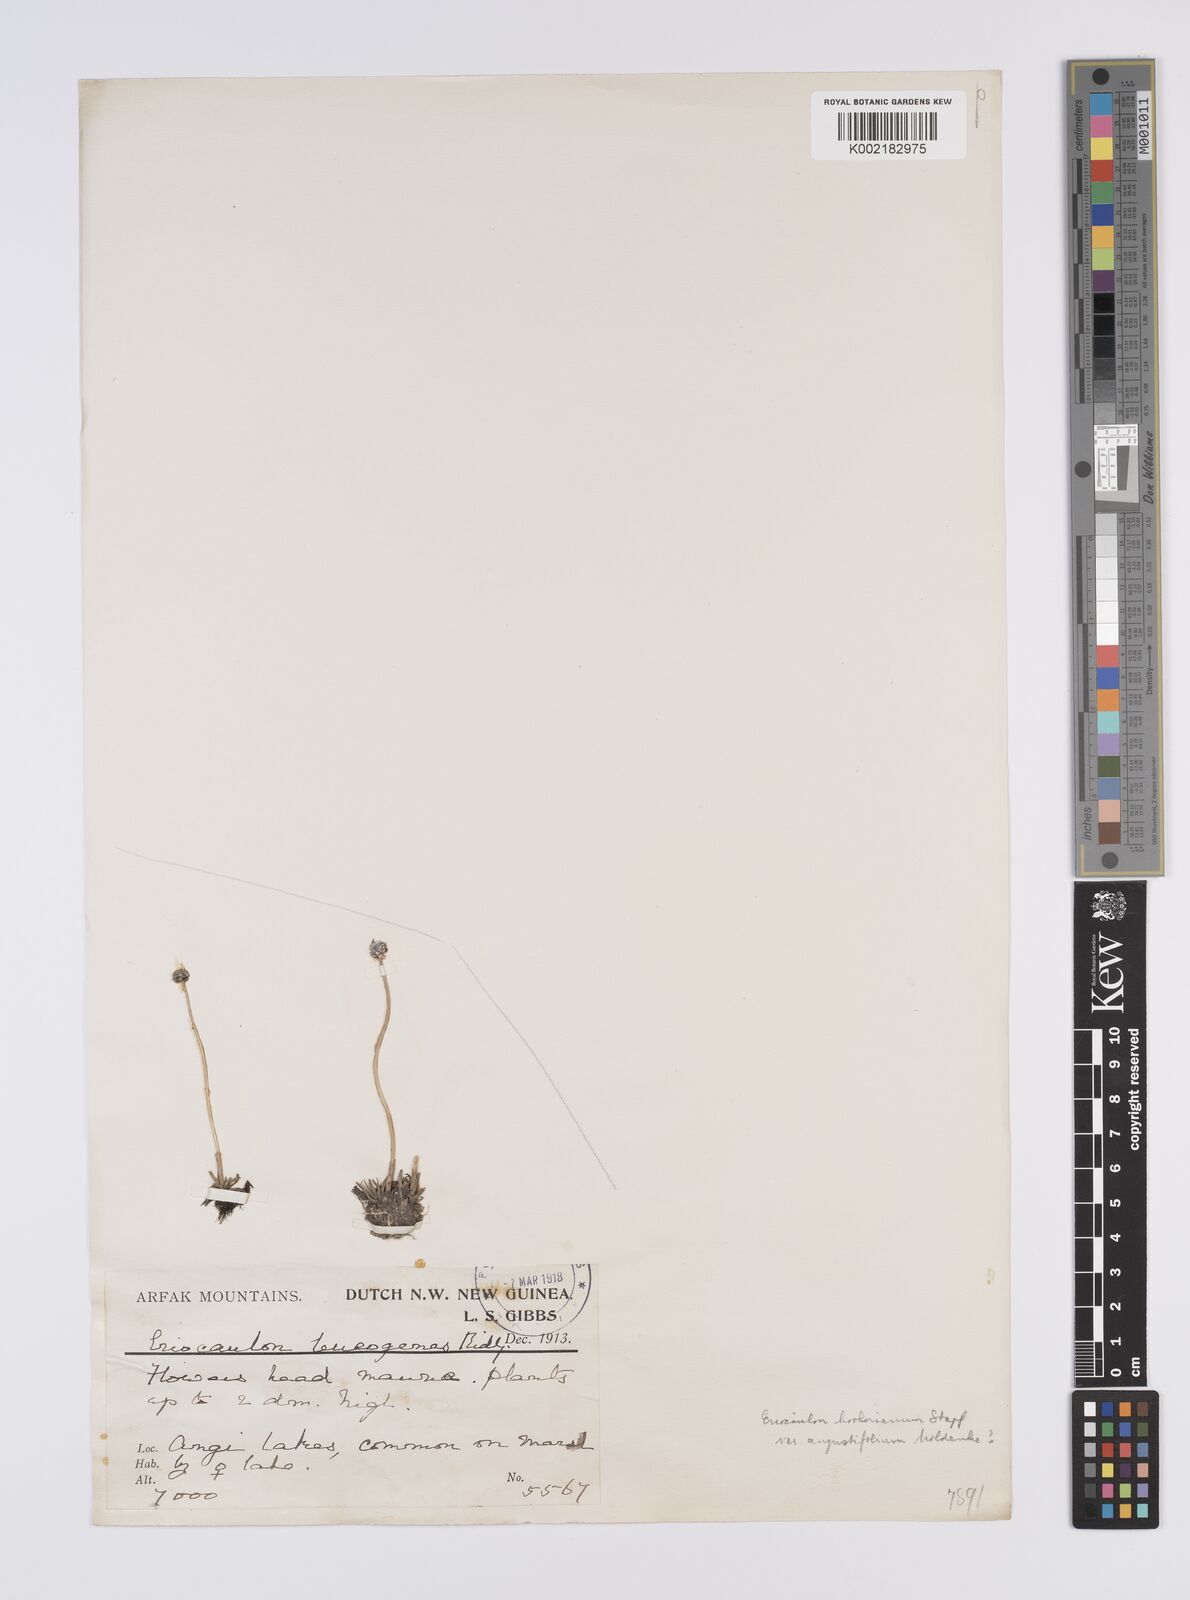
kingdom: Plantae
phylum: Tracheophyta
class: Liliopsida
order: Poales
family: Eriocaulaceae
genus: Eriocaulon
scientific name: Eriocaulon leucogenes
